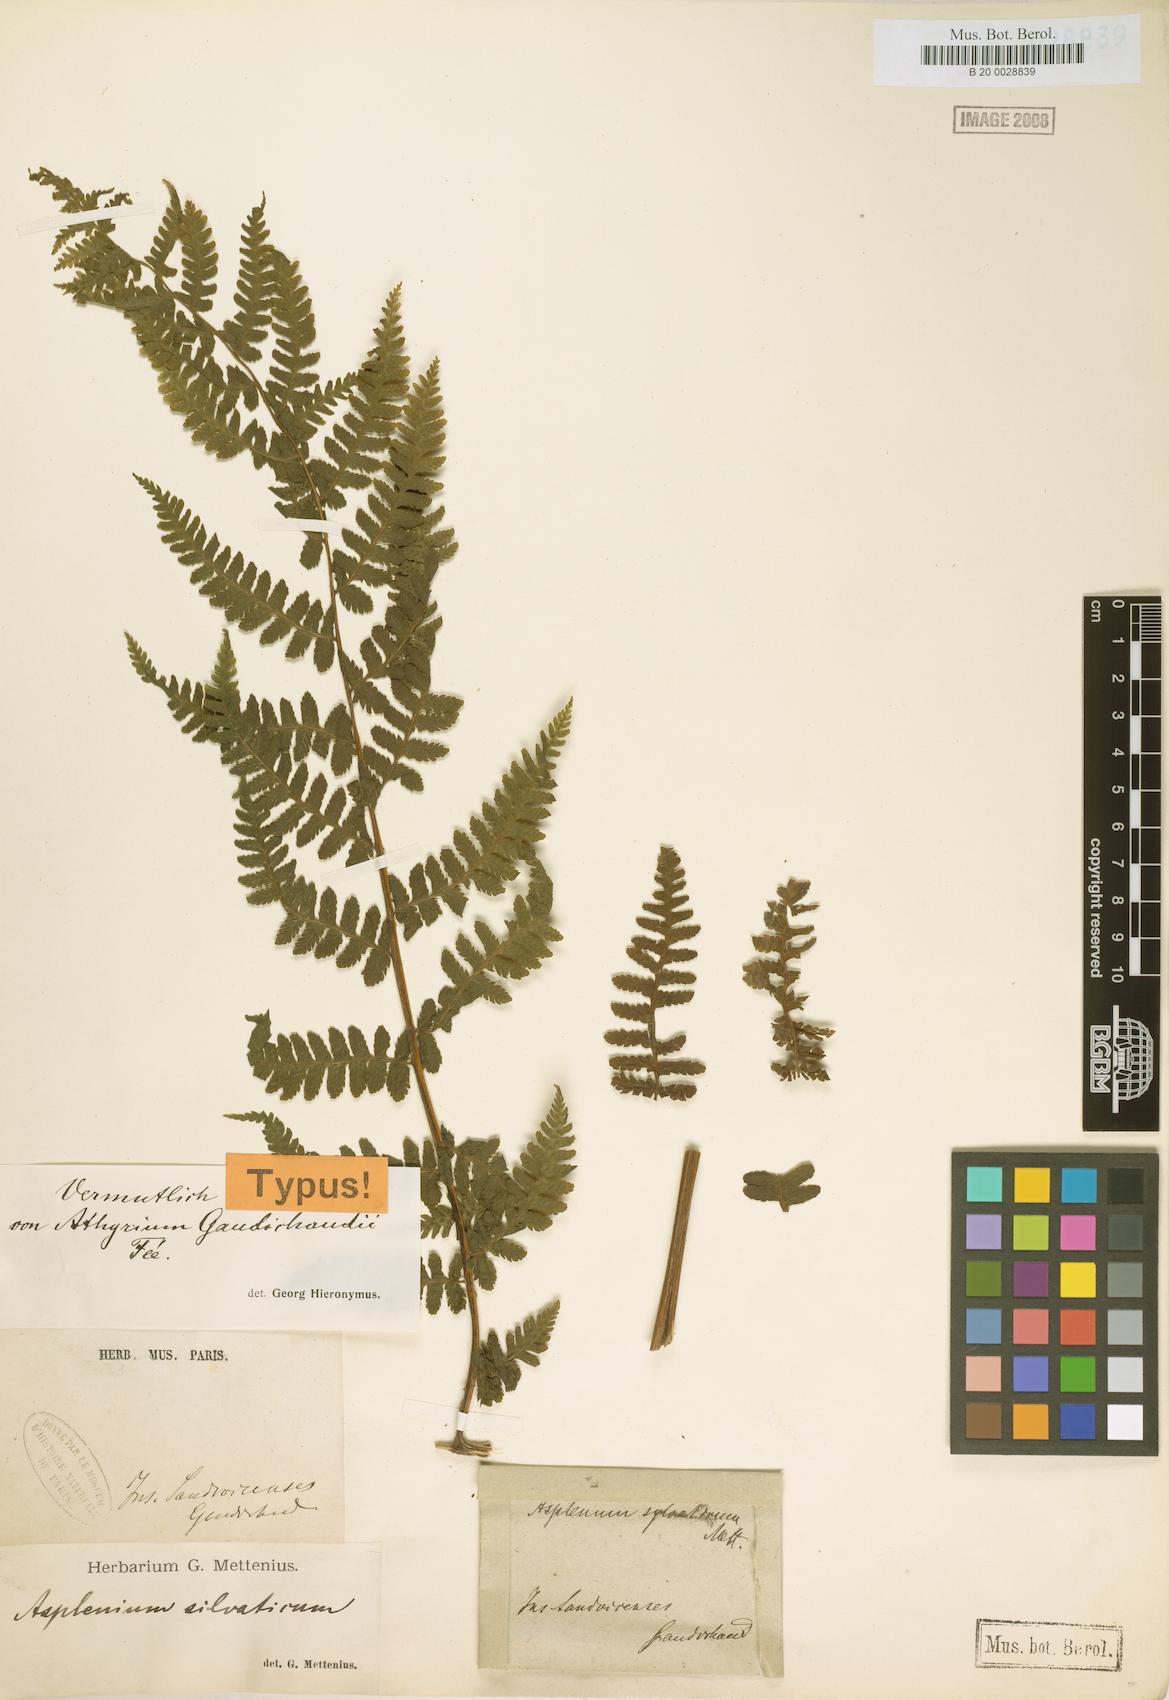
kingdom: Plantae
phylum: Tracheophyta
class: Polypodiopsida
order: Polypodiales
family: Athyriaceae
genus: Diplazium
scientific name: Diplazium arnottii
